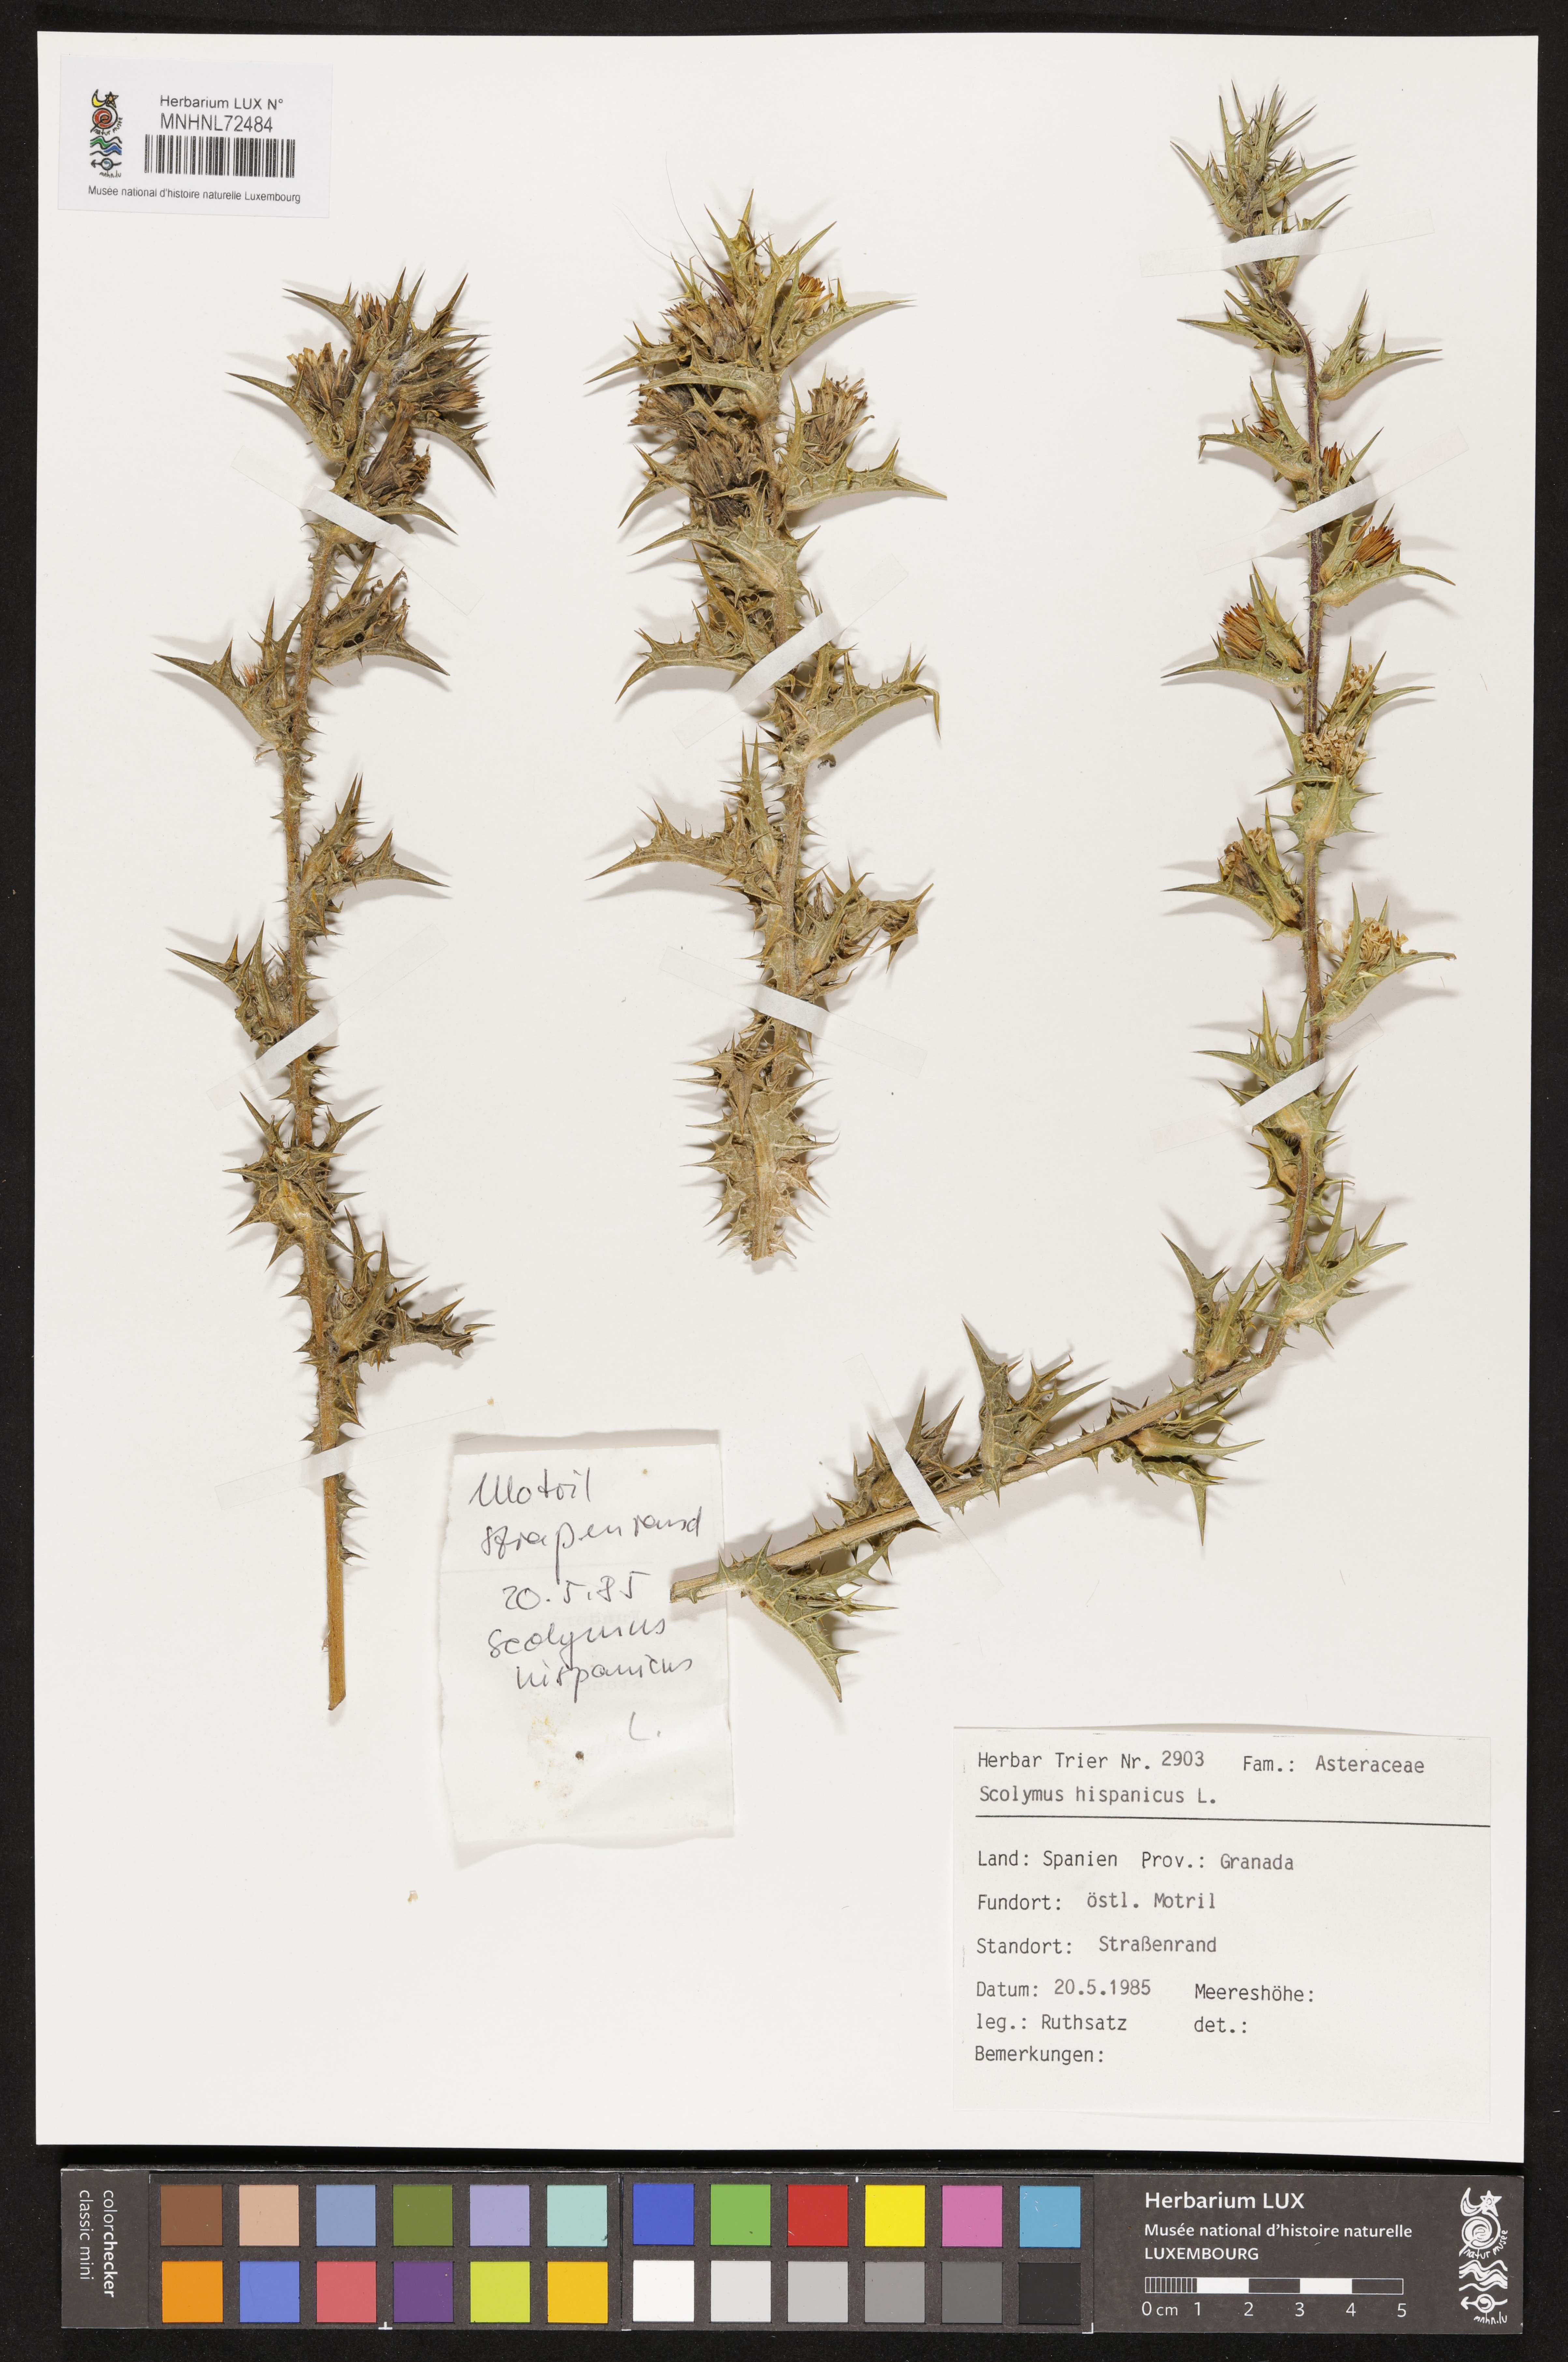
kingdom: Plantae
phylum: Tracheophyta
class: Magnoliopsida
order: Asterales
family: Asteraceae
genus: Scolymus
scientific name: Scolymus hispanicus
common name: Golden thistle
